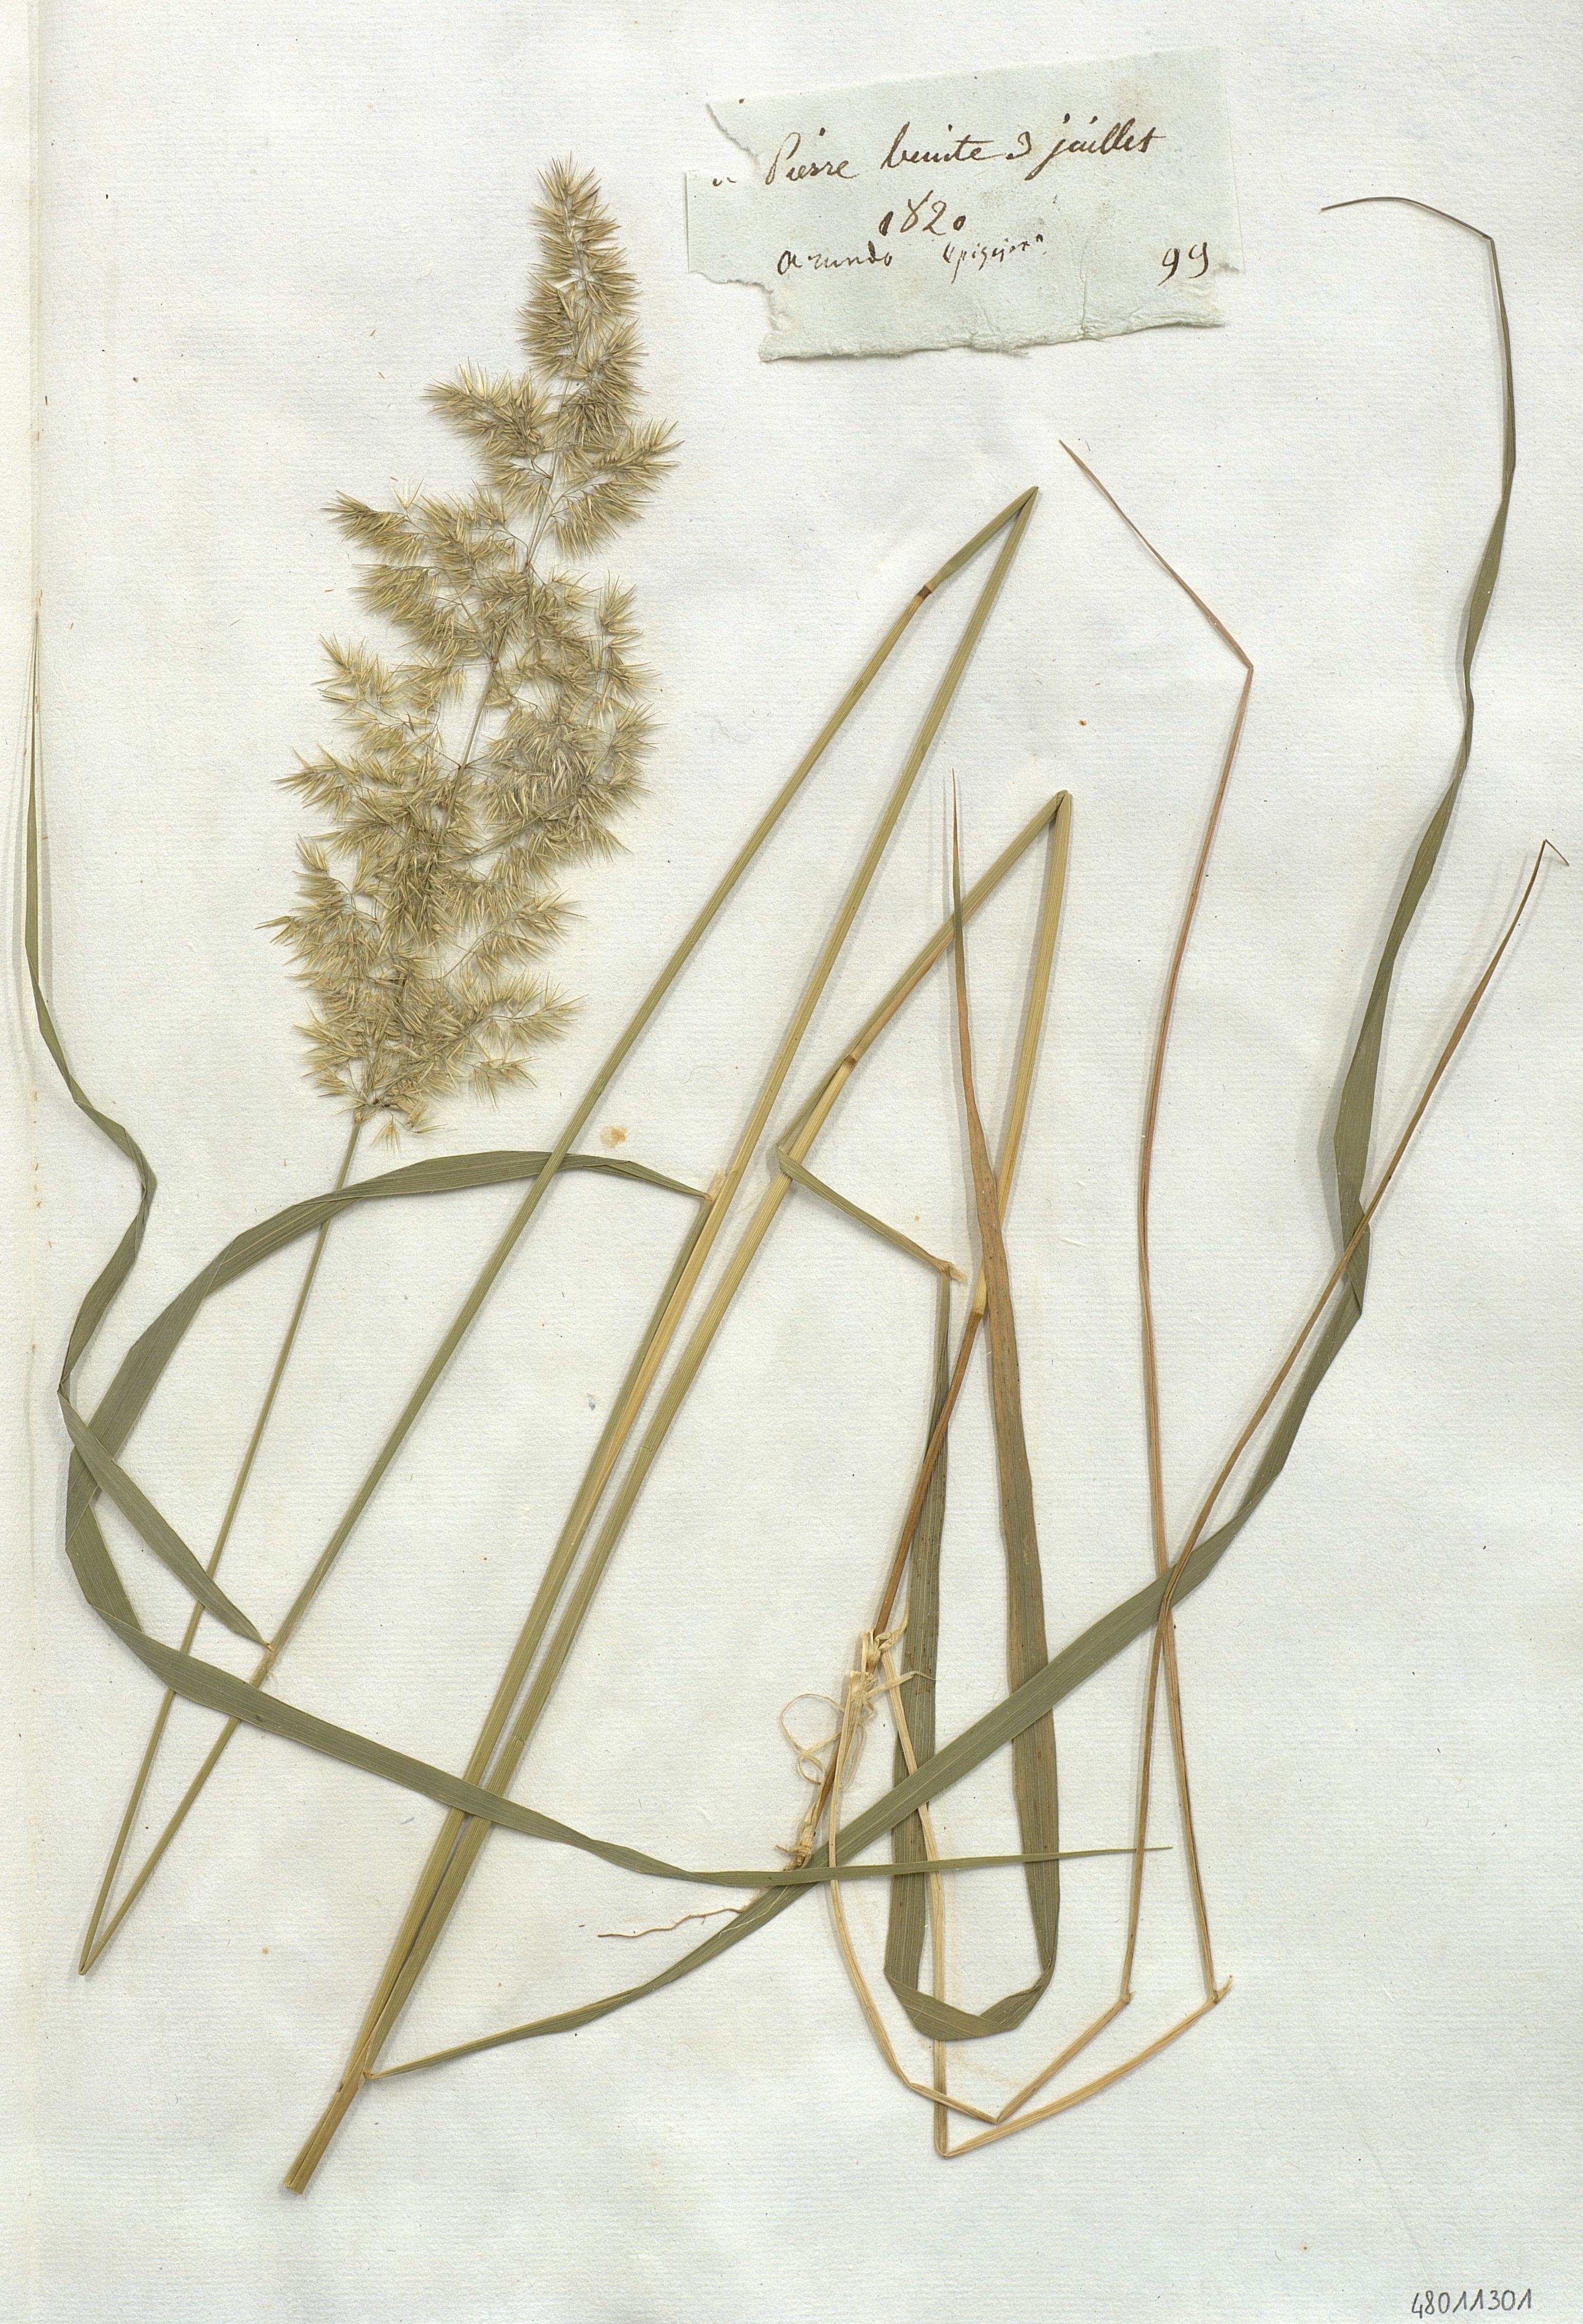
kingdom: Plantae
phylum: Tracheophyta
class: Liliopsida
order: Poales
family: Poaceae
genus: Calamagrostis
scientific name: Calamagrostis epigejos
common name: Wood small-reed
